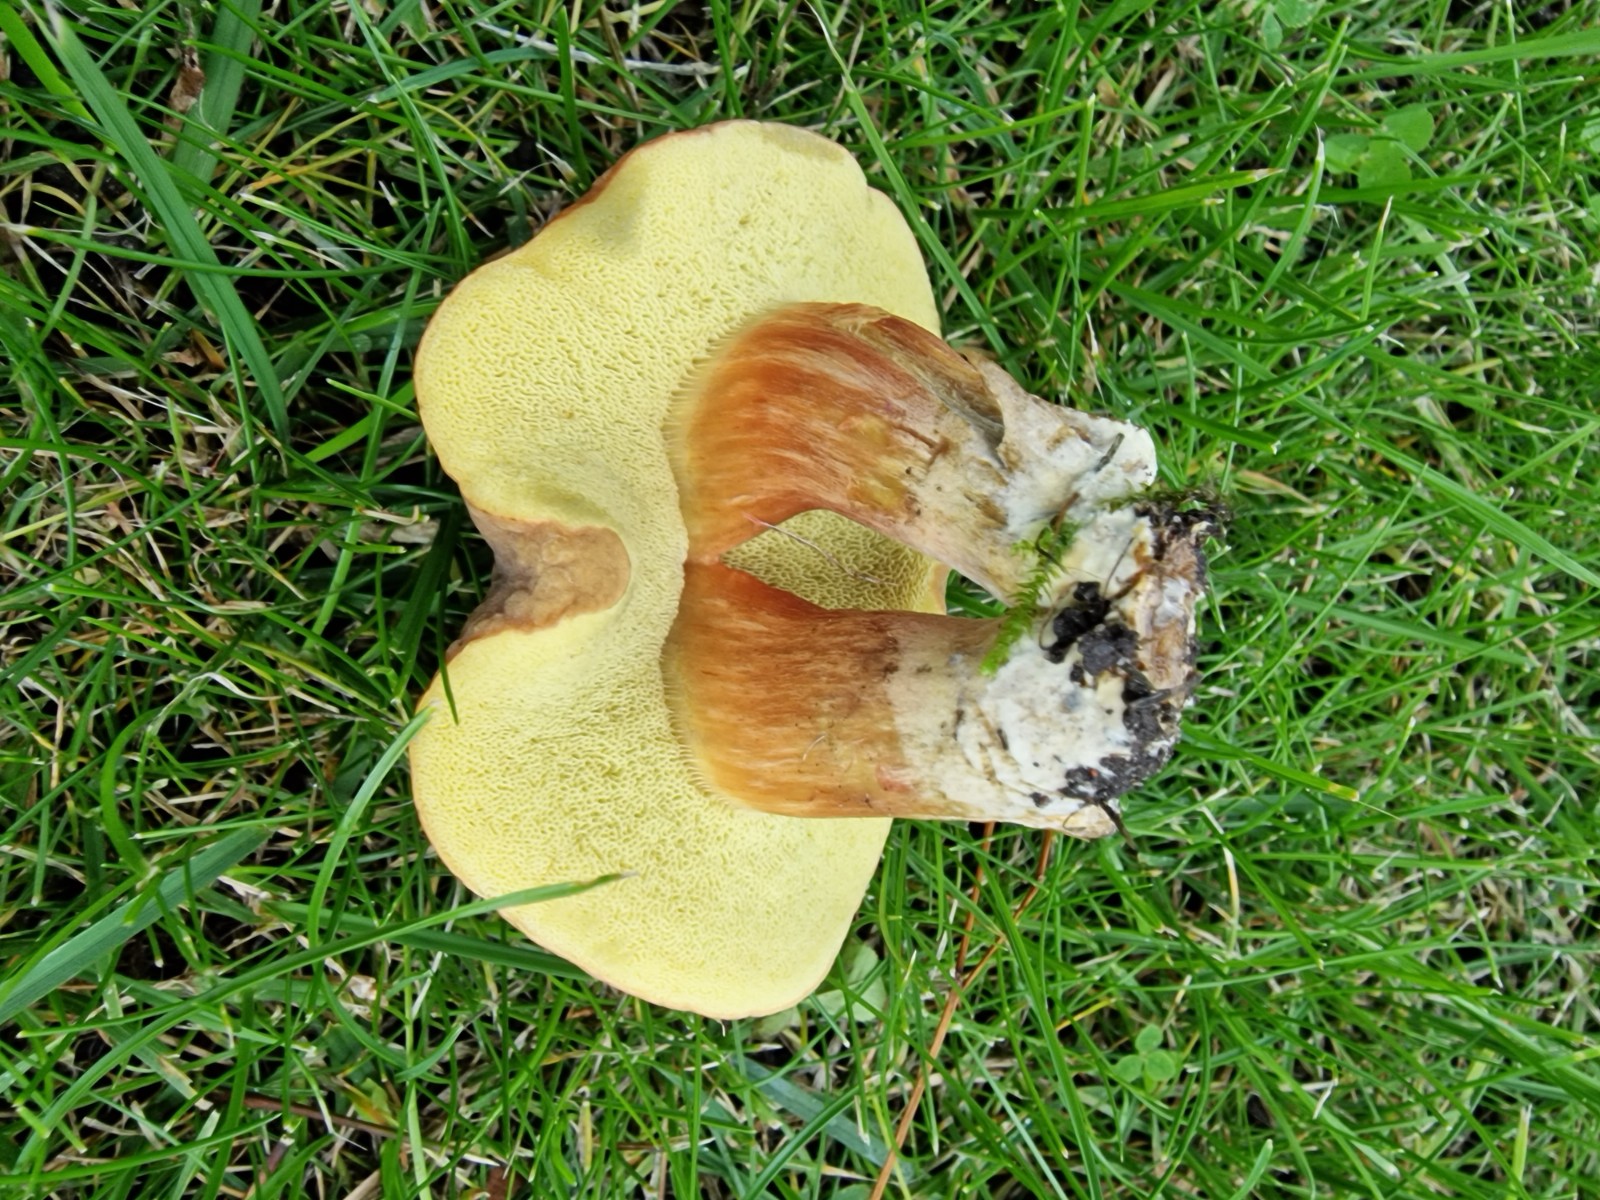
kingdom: Fungi
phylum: Basidiomycota
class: Agaricomycetes
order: Boletales
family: Boletaceae
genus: Hortiboletus
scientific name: Hortiboletus bubalinus
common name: aurora-rørhat
